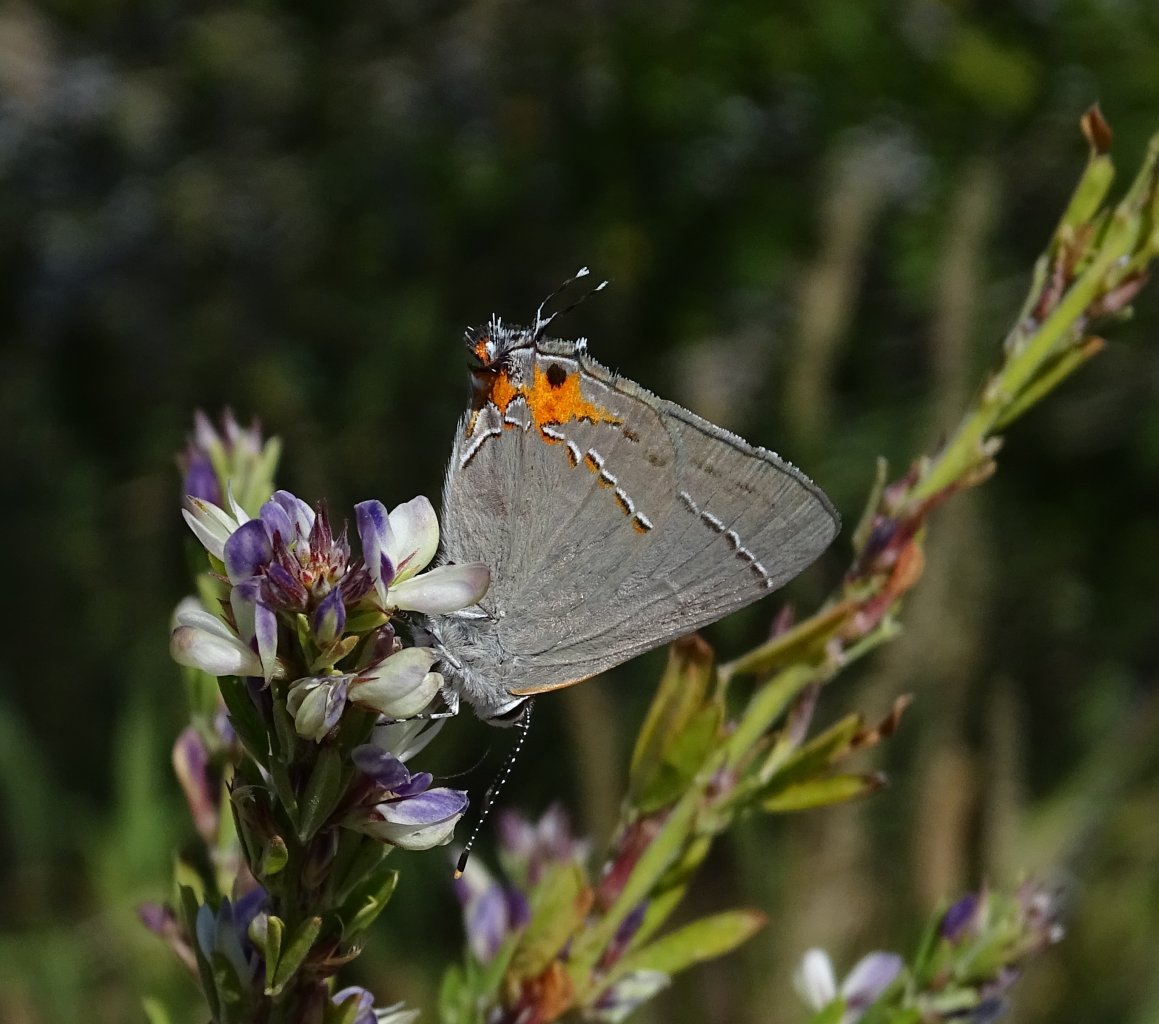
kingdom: Animalia
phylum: Arthropoda
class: Insecta
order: Lepidoptera
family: Lycaenidae
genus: Strymon
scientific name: Strymon melinus
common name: Gray Hairstreak
